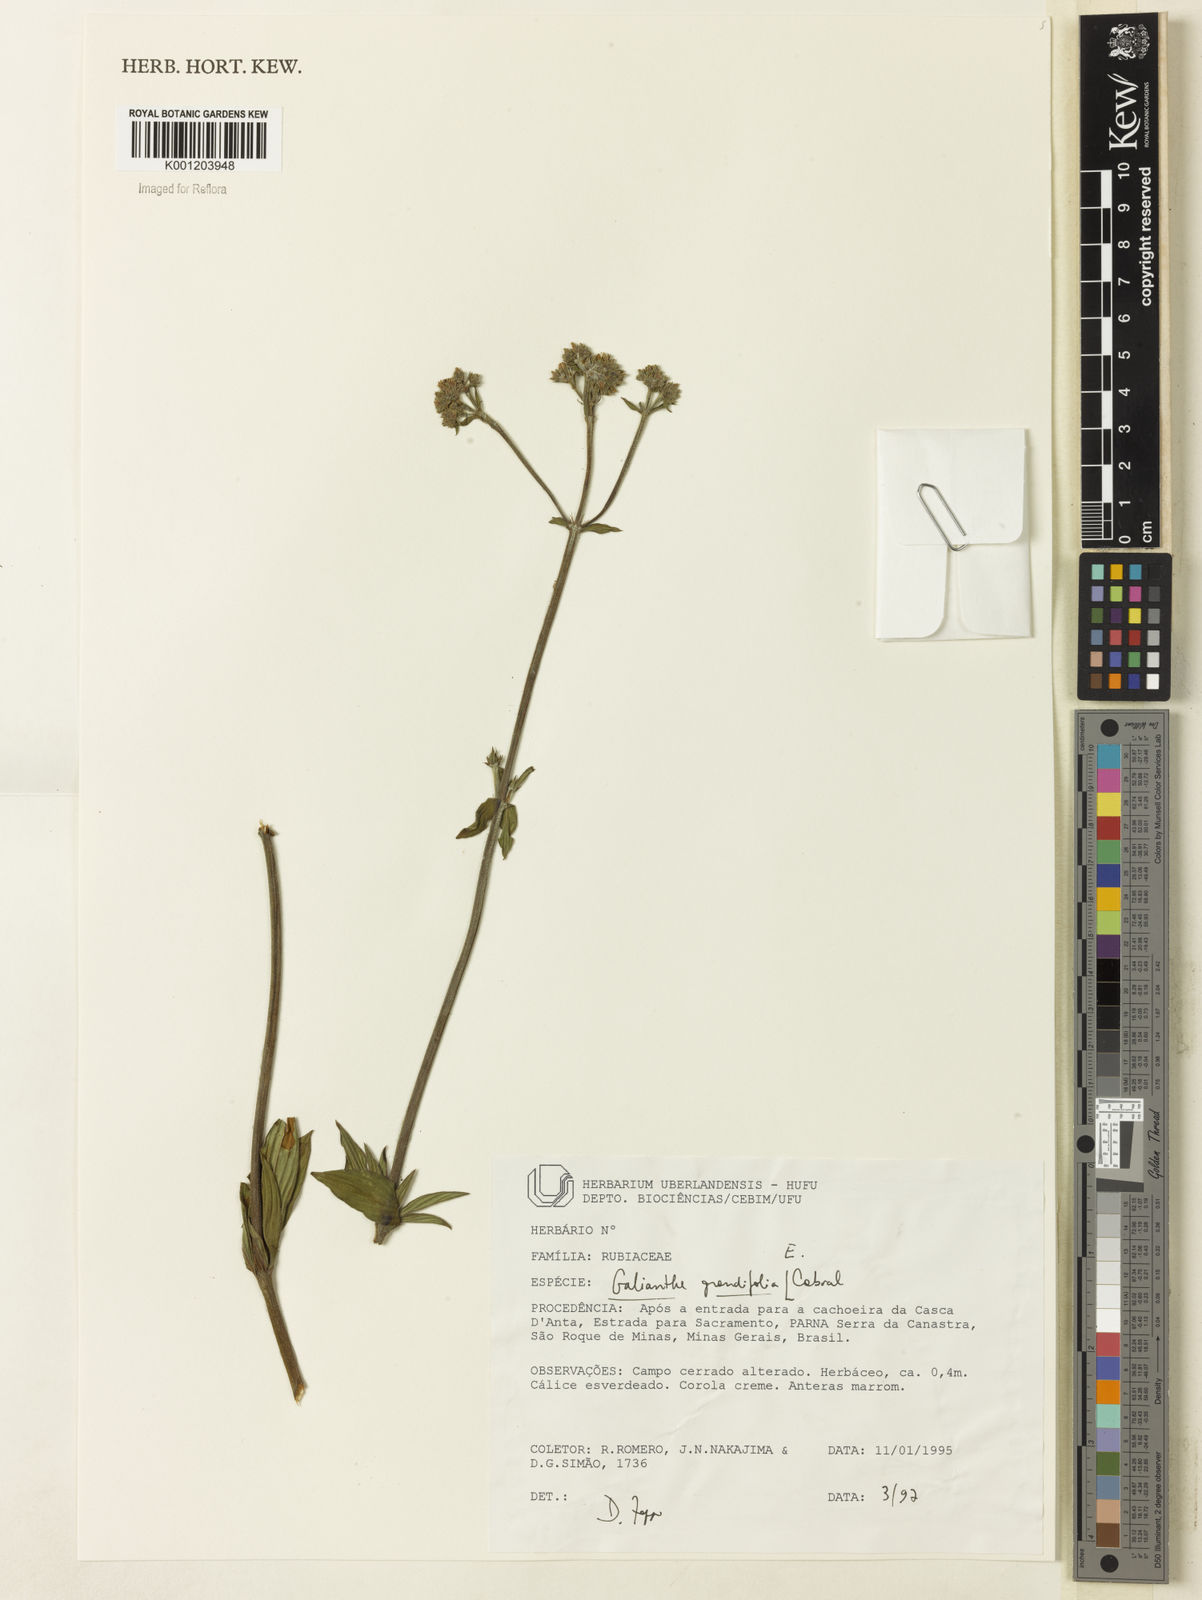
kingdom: Plantae
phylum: Tracheophyta
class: Magnoliopsida
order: Gentianales
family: Rubiaceae
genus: Galianthe
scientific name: Galianthe grandifolia
